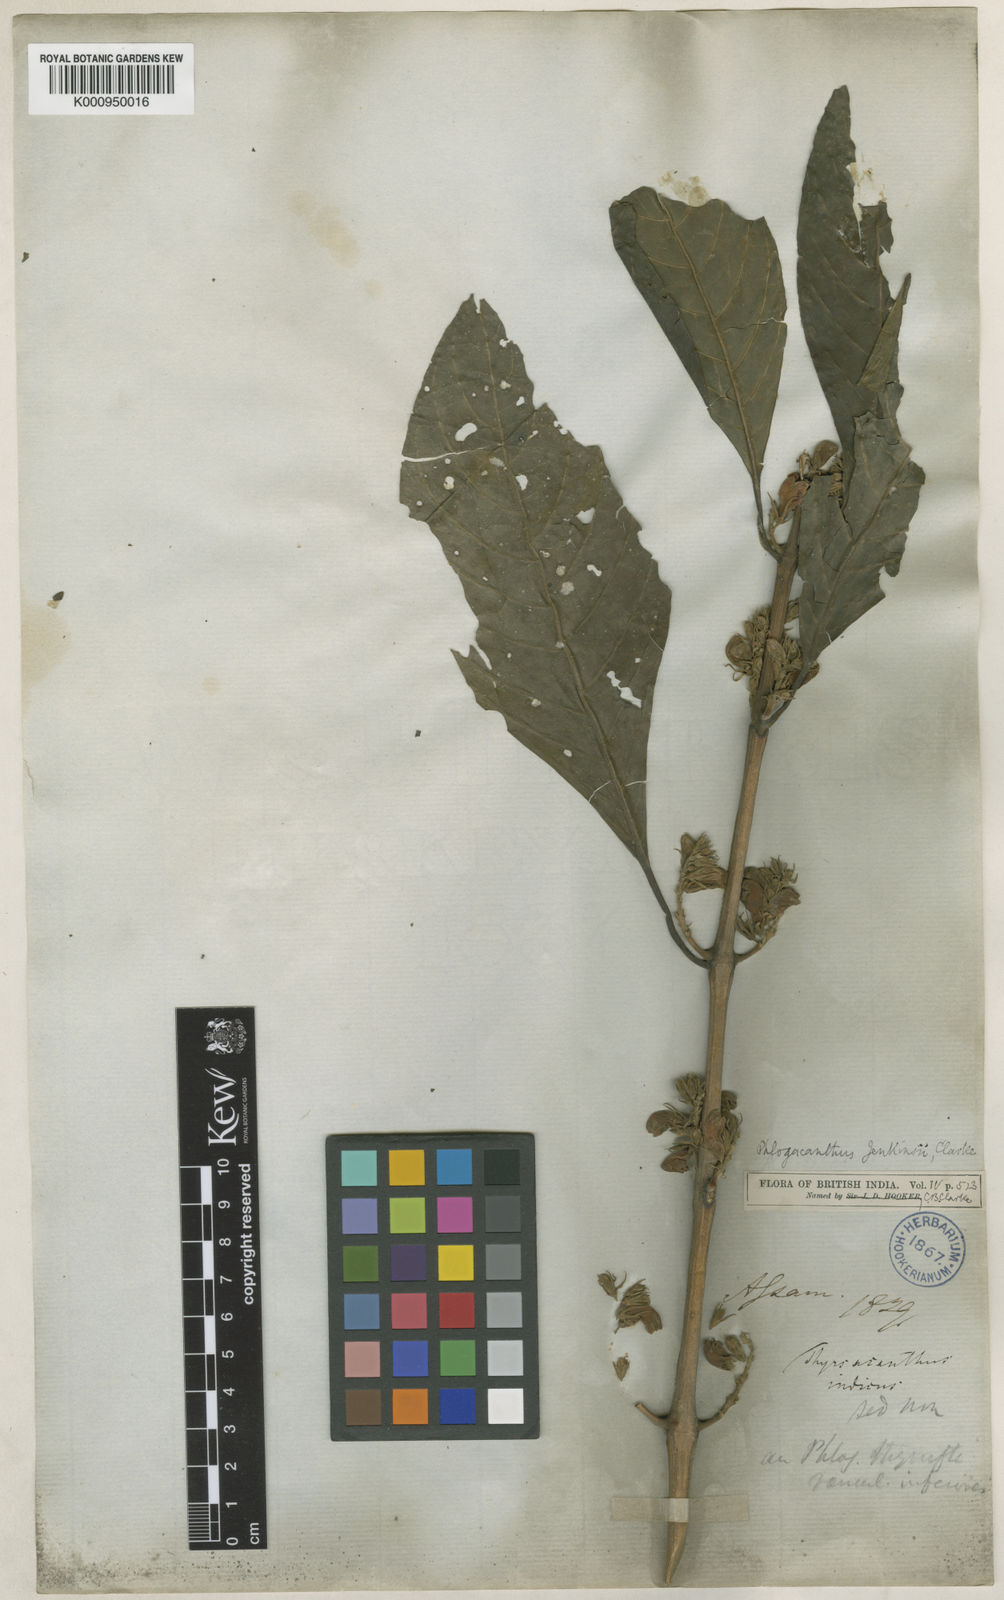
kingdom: Plantae
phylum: Tracheophyta
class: Magnoliopsida
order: Lamiales
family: Acanthaceae
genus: Phlogacanthus
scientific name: Phlogacanthus jenkinsii
